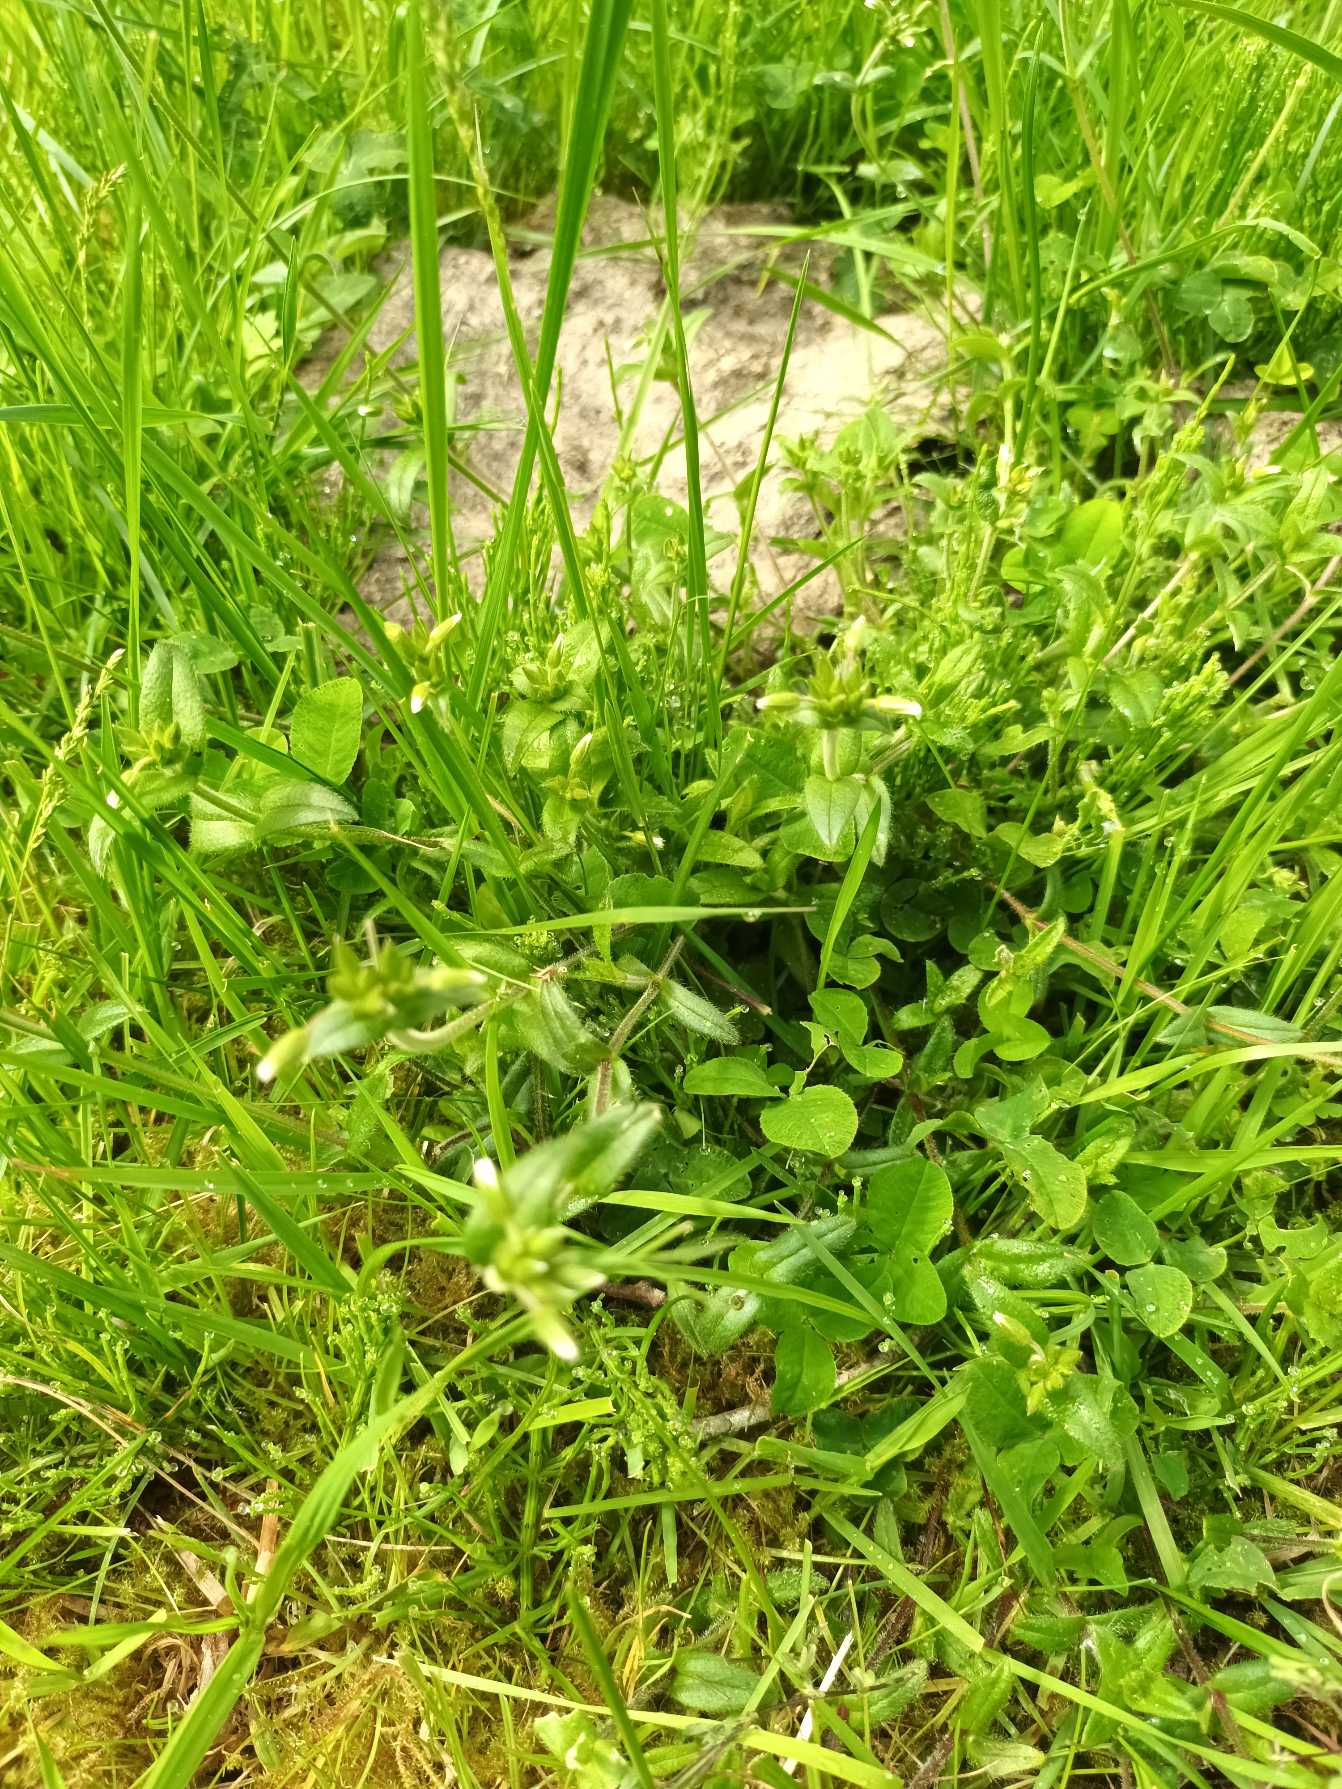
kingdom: Plantae
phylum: Tracheophyta
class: Magnoliopsida
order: Caryophyllales
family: Caryophyllaceae
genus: Cerastium
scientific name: Cerastium fontanum
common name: Almindelig hønsetarm
